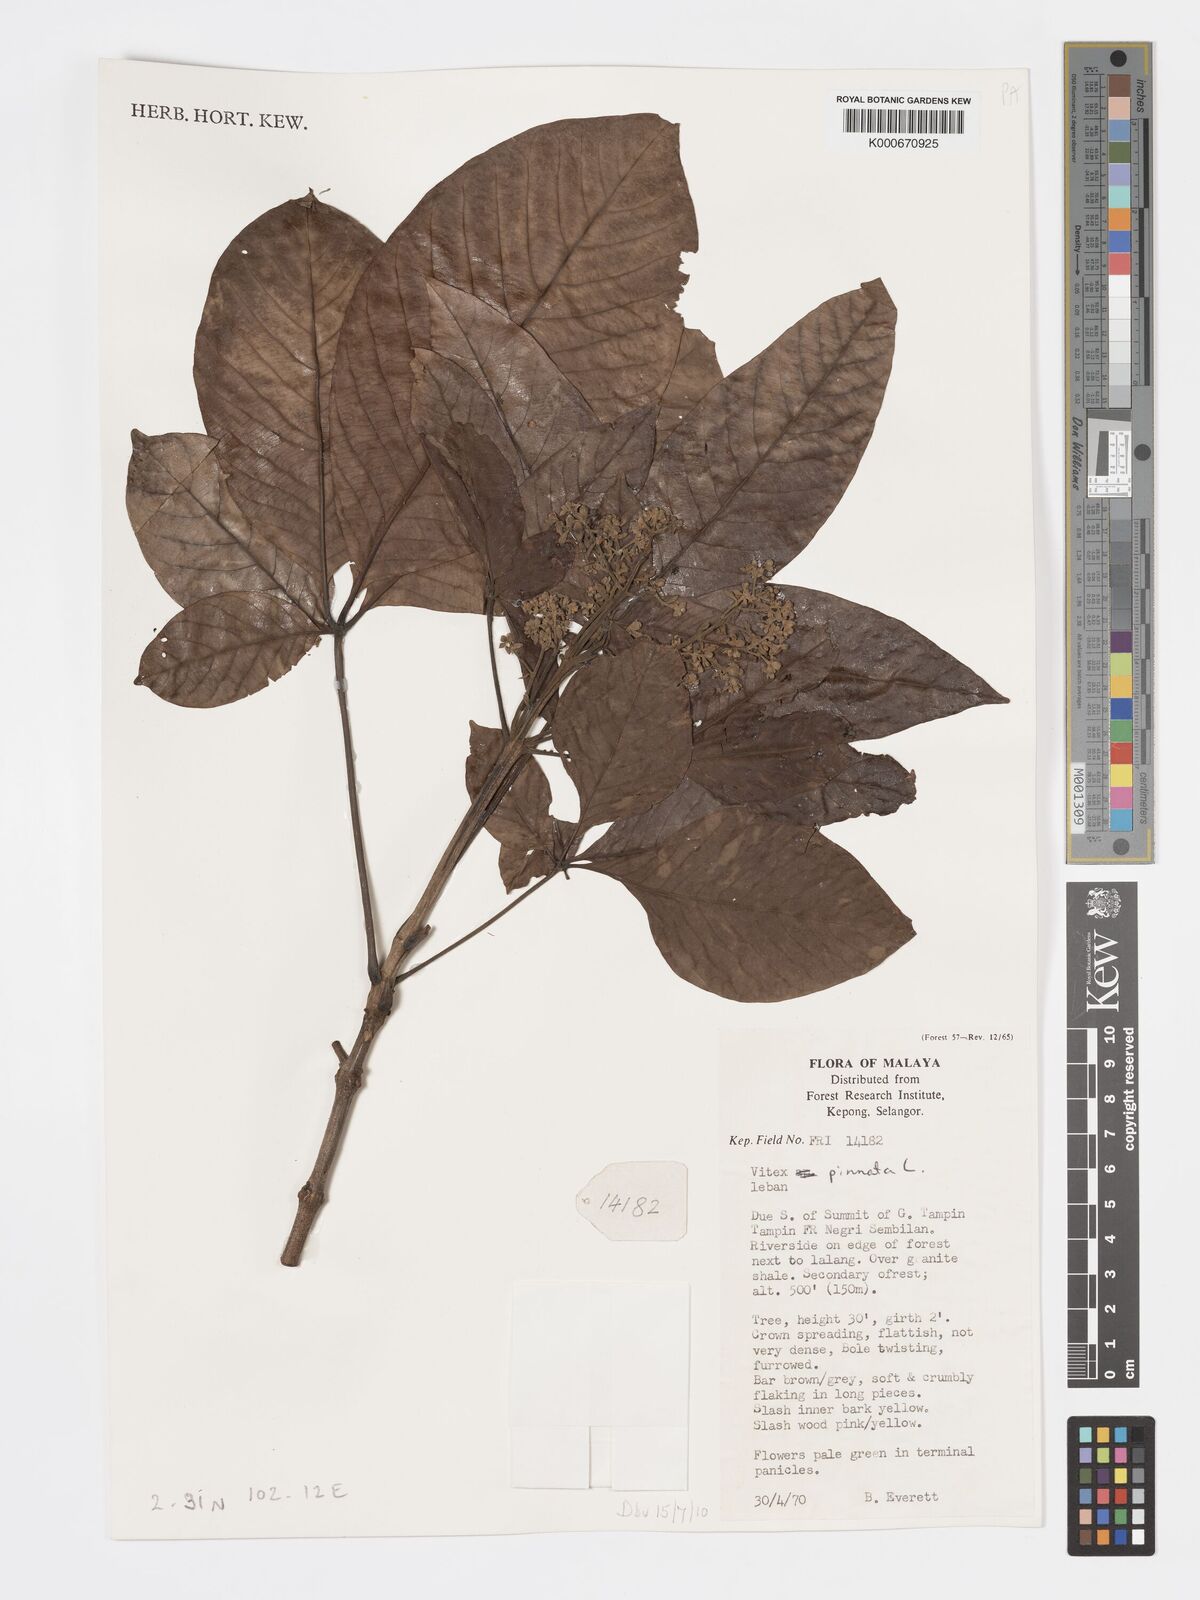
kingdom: Plantae
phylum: Tracheophyta
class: Magnoliopsida
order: Lamiales
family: Lamiaceae
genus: Vitex
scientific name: Vitex pinnata
